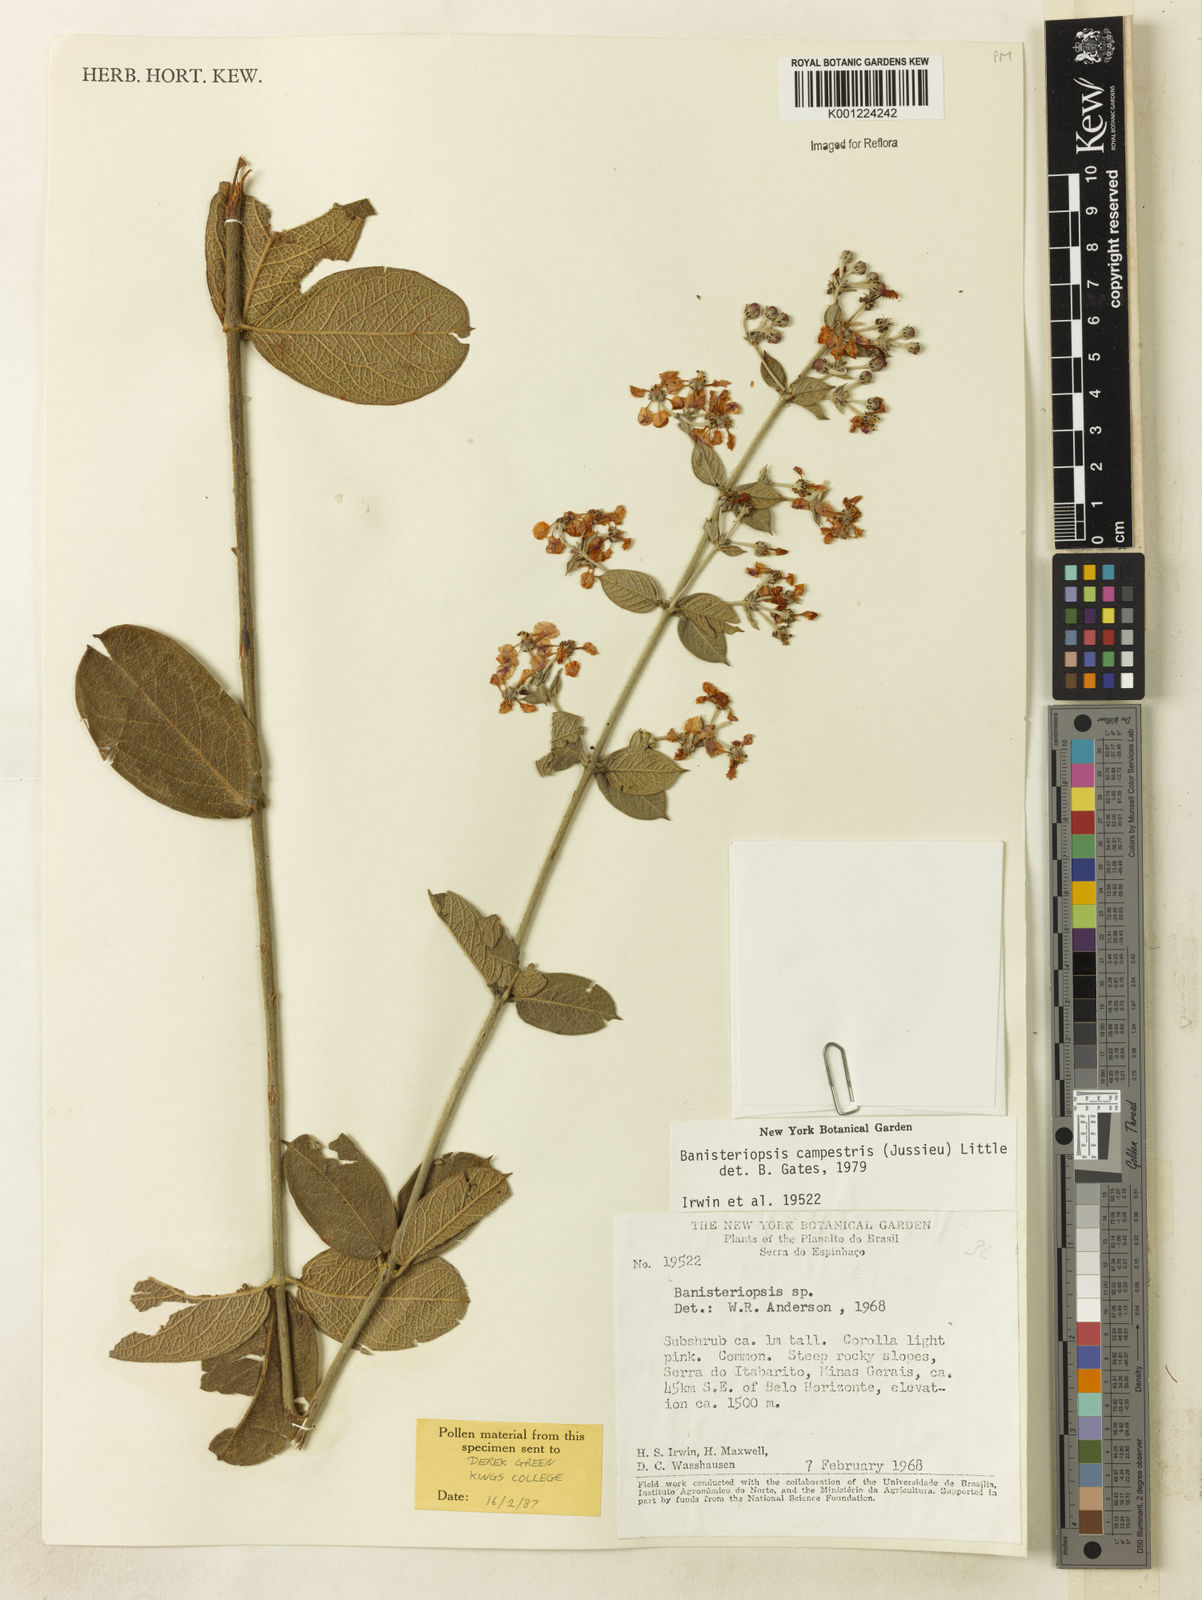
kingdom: Plantae
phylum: Tracheophyta
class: Magnoliopsida
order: Malpighiales
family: Malpighiaceae
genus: Banisteriopsis
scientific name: Banisteriopsis campestris
